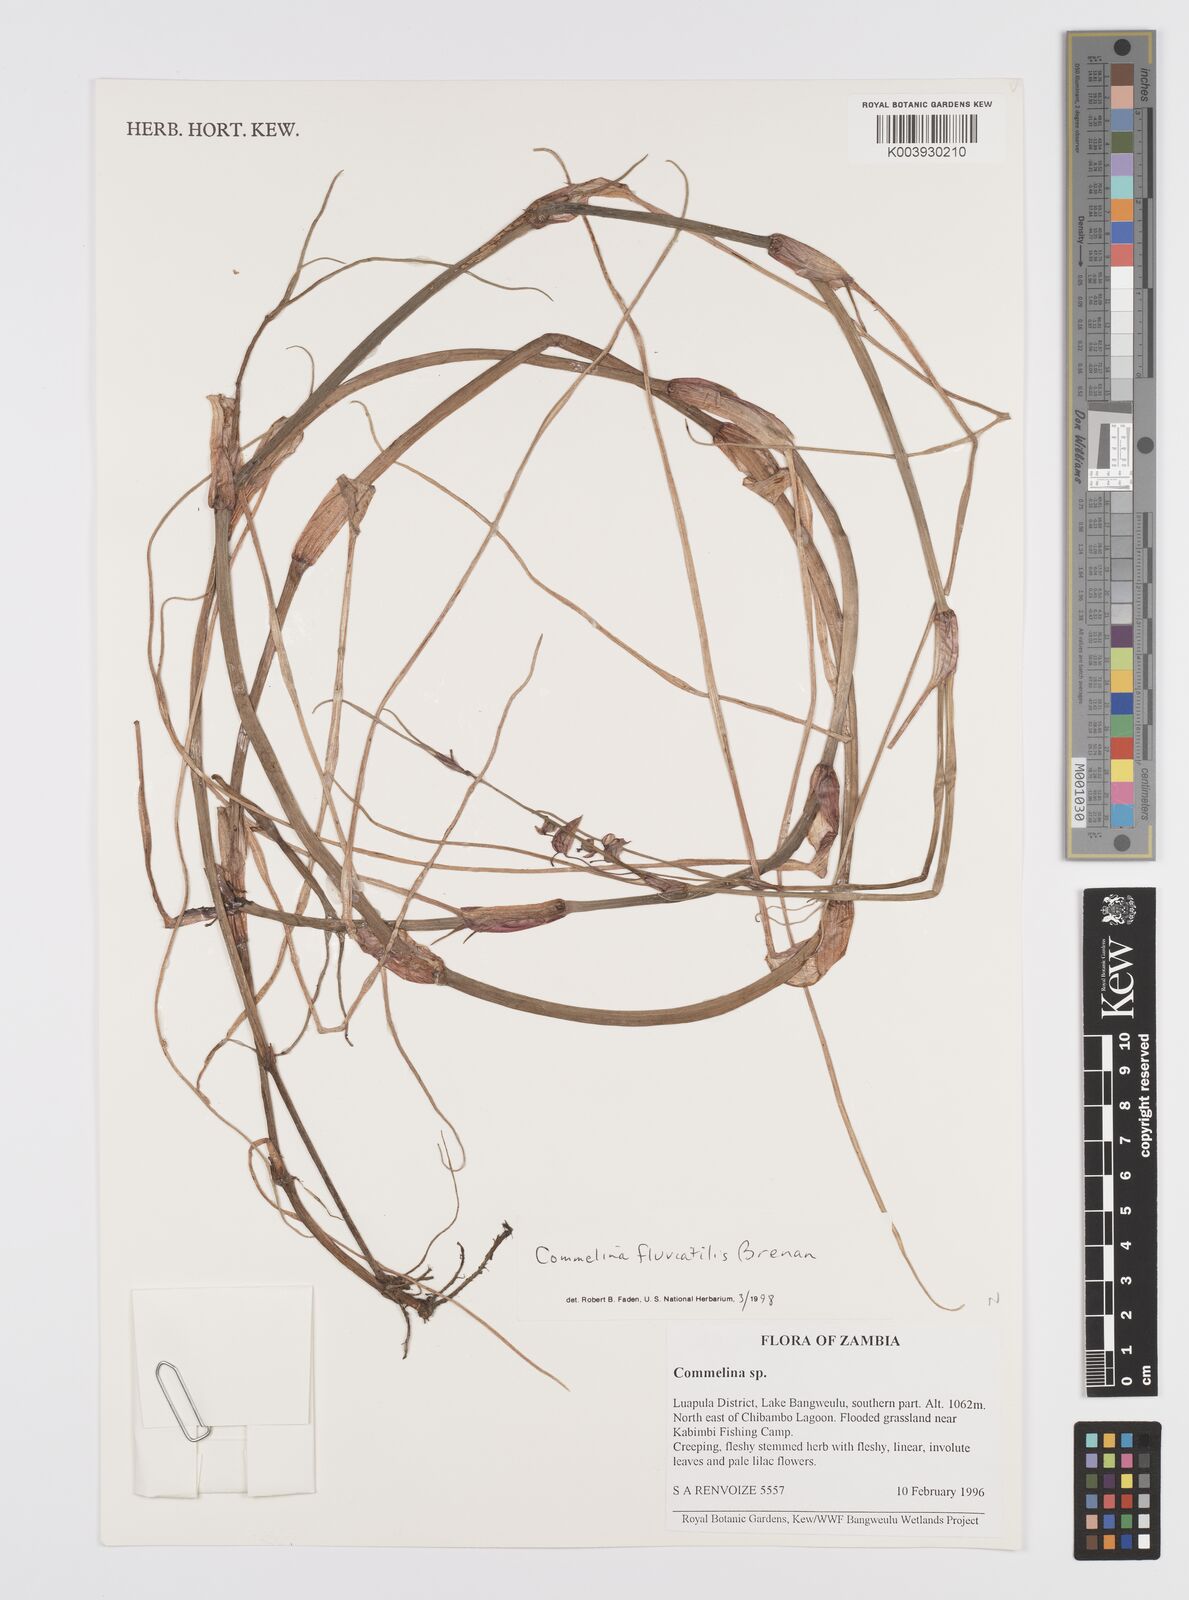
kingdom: Plantae
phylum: Tracheophyta
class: Liliopsida
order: Commelinales
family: Commelinaceae
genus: Commelina
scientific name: Commelina fluviatilis
